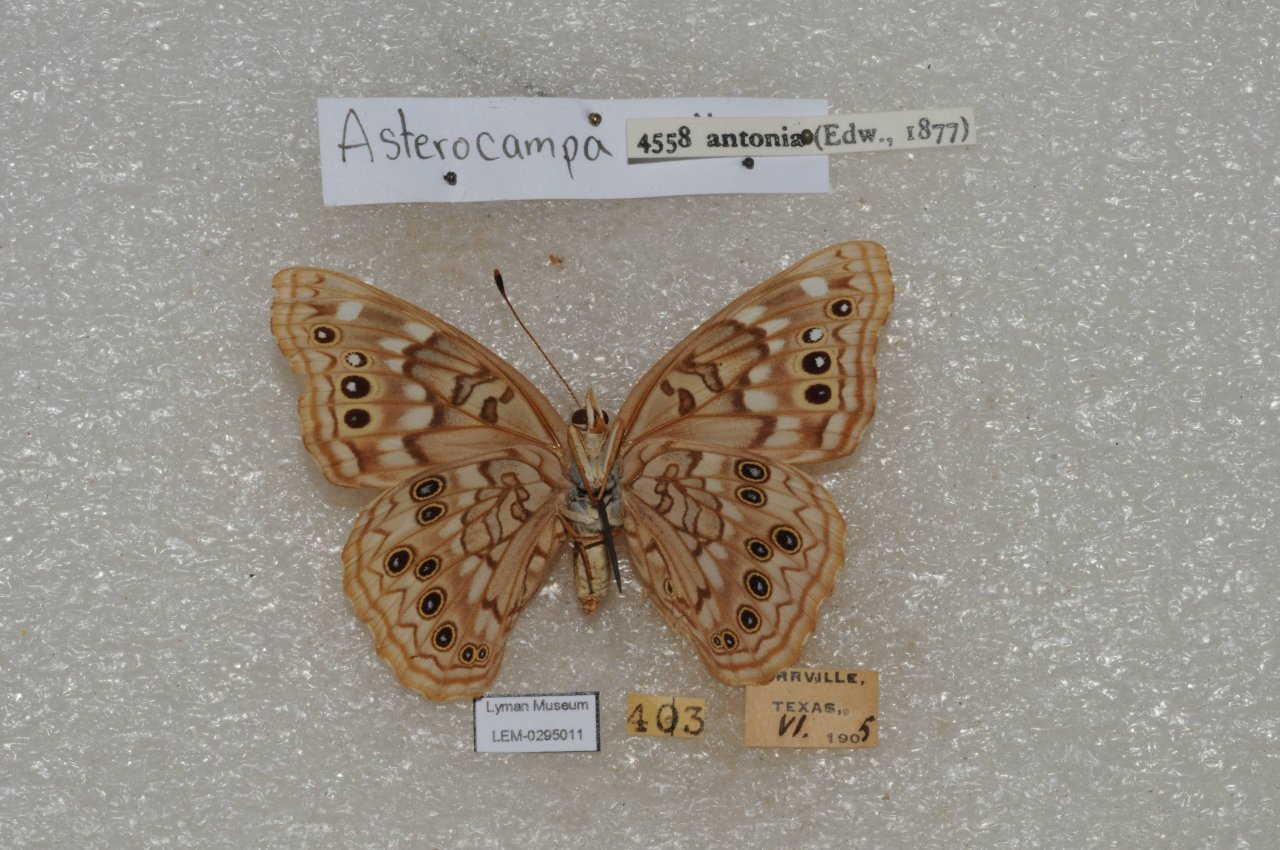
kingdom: Animalia
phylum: Arthropoda
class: Insecta
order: Lepidoptera
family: Nymphalidae
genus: Asterocampa
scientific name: Asterocampa celtis
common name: Hackberry Emperor
